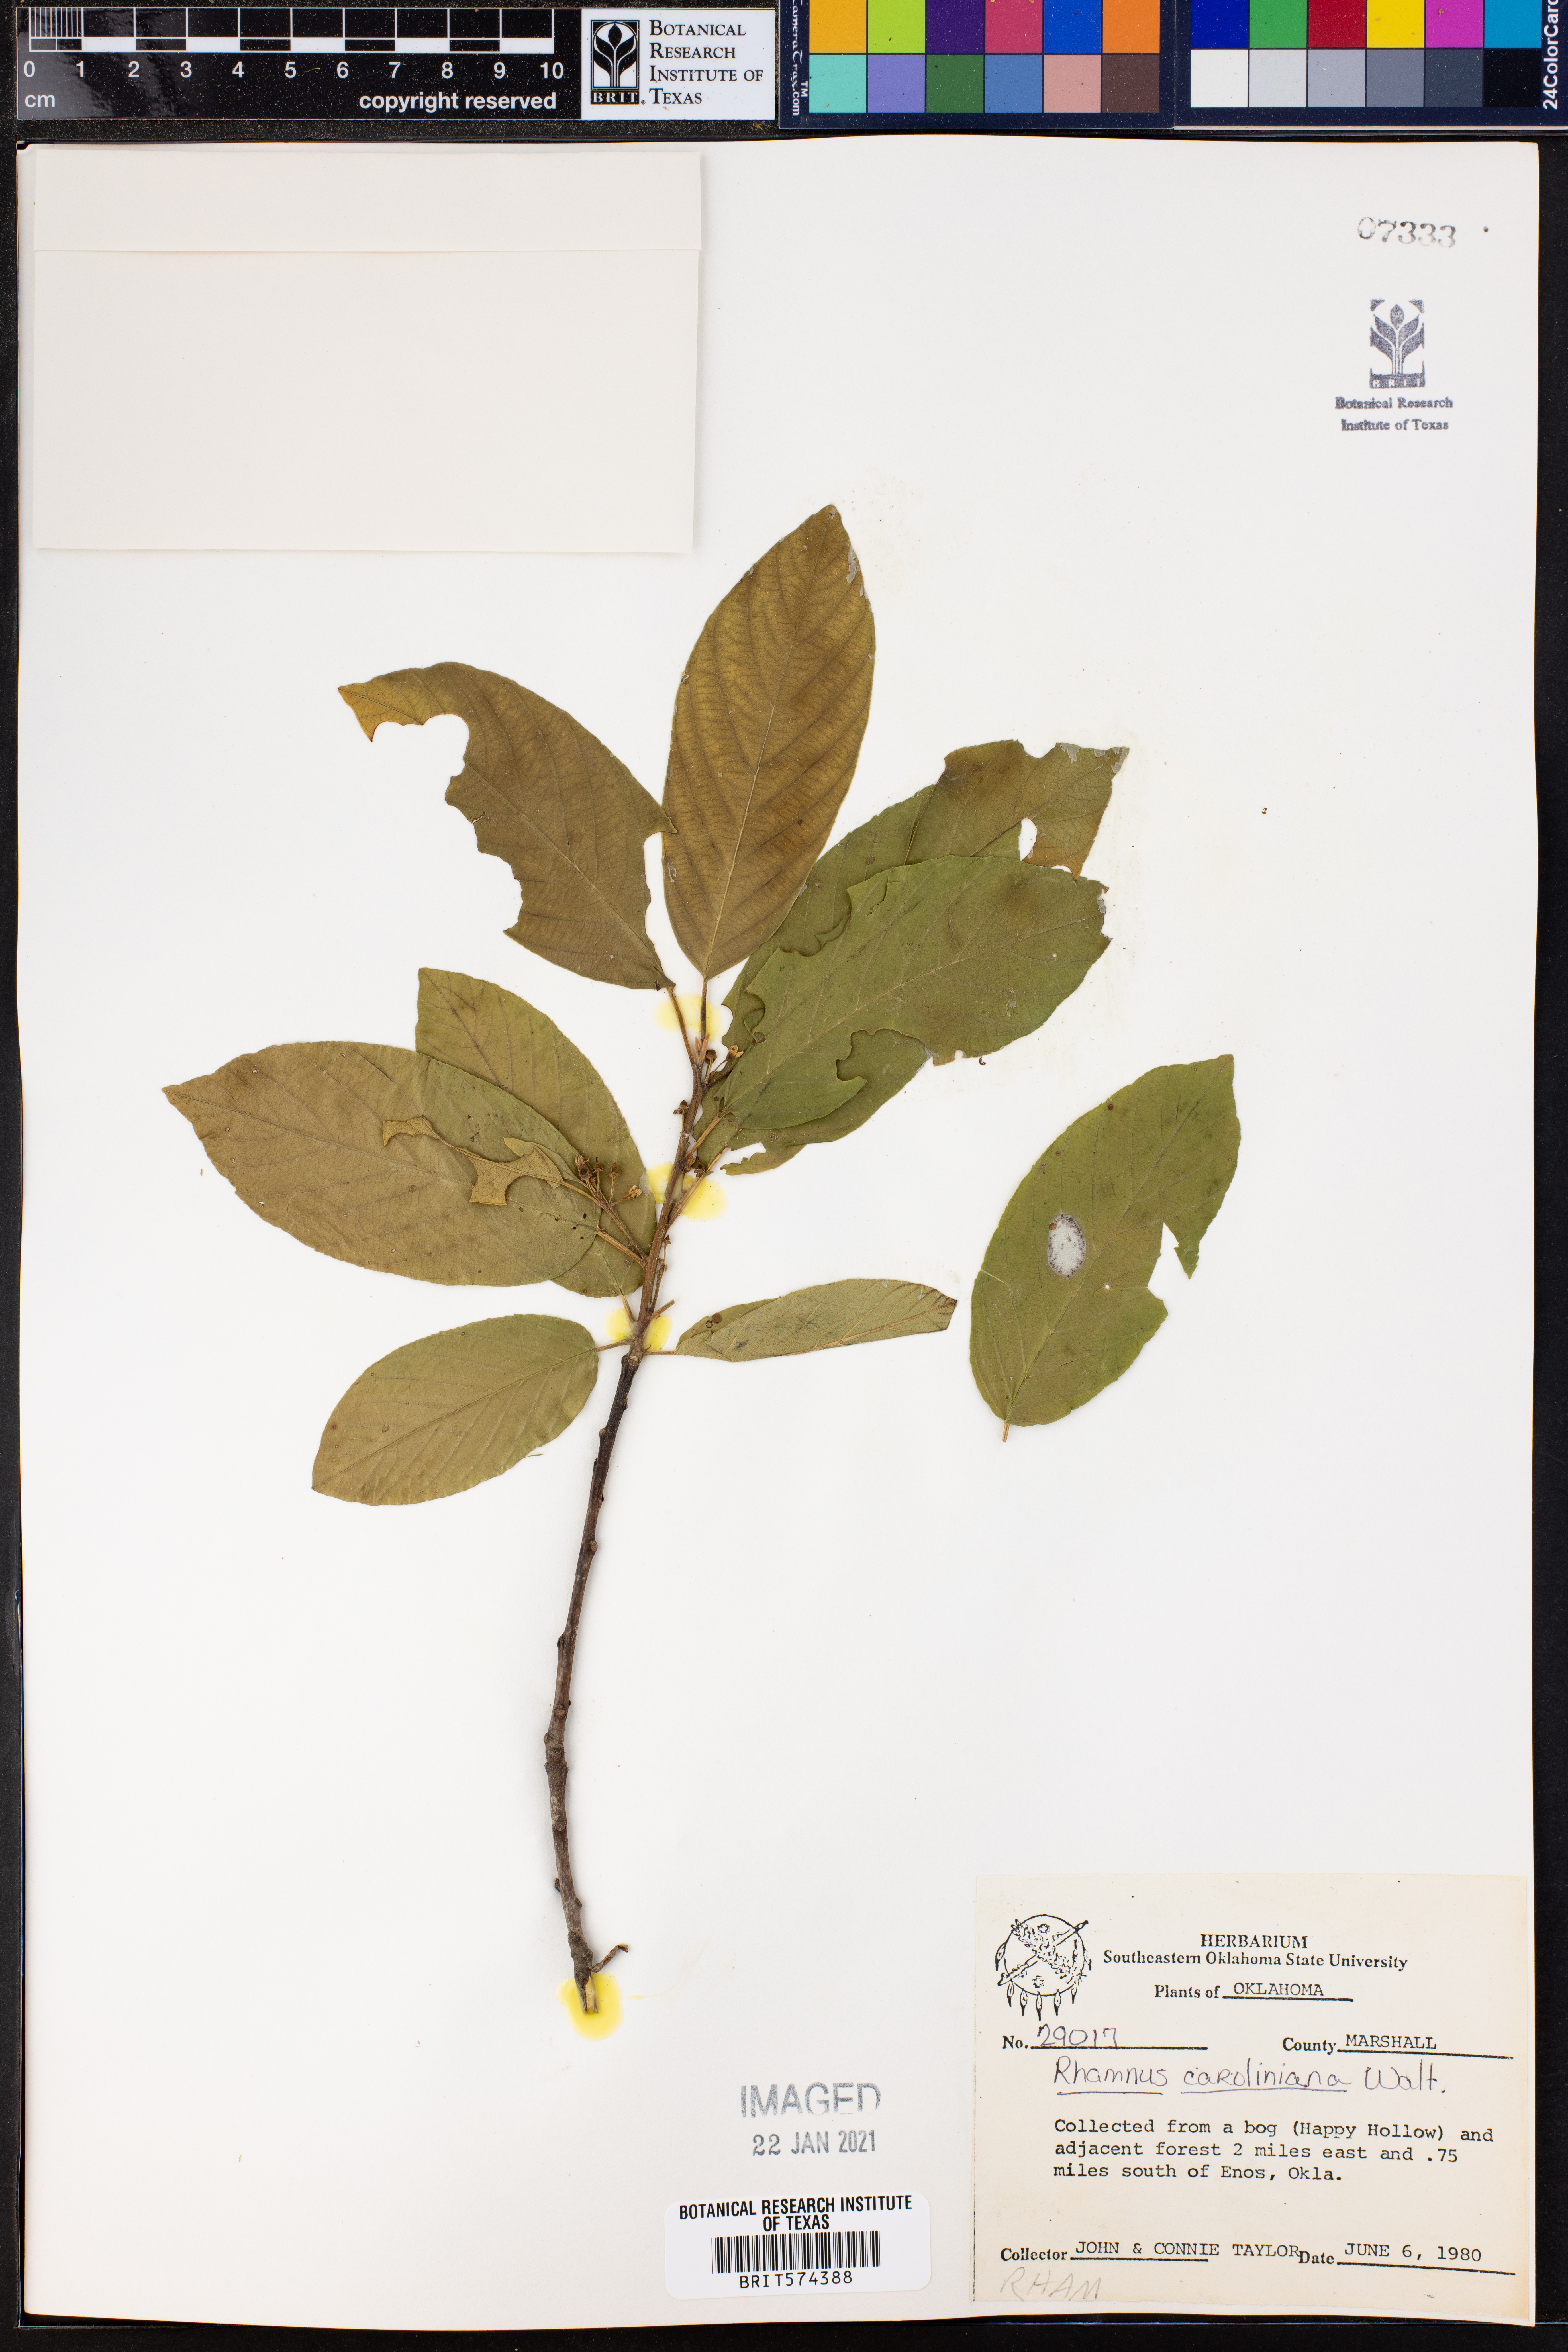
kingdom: Plantae
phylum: Tracheophyta
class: Magnoliopsida
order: Rosales
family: Rhamnaceae
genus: Frangula
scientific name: Frangula caroliniana
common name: Carolina buckthorn
